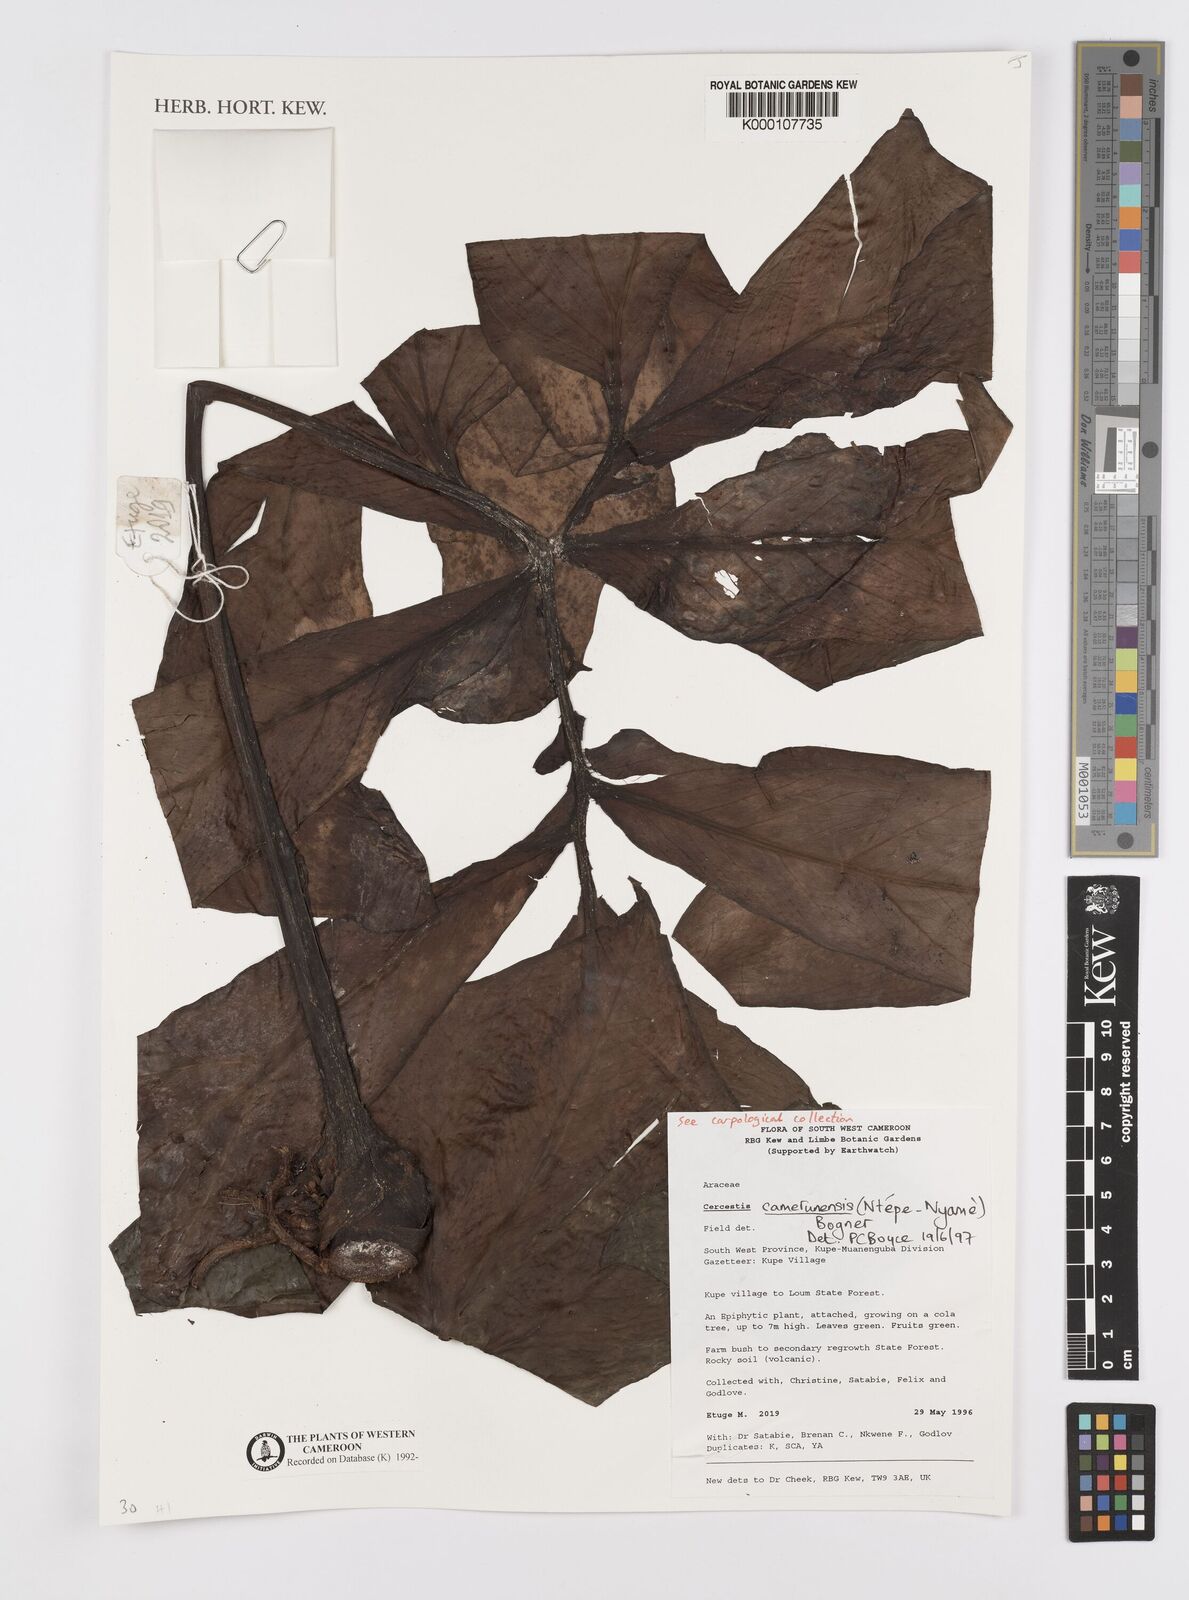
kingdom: Plantae
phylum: Tracheophyta
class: Liliopsida
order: Alismatales
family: Araceae
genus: Cercestis
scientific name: Cercestis camerunensis
